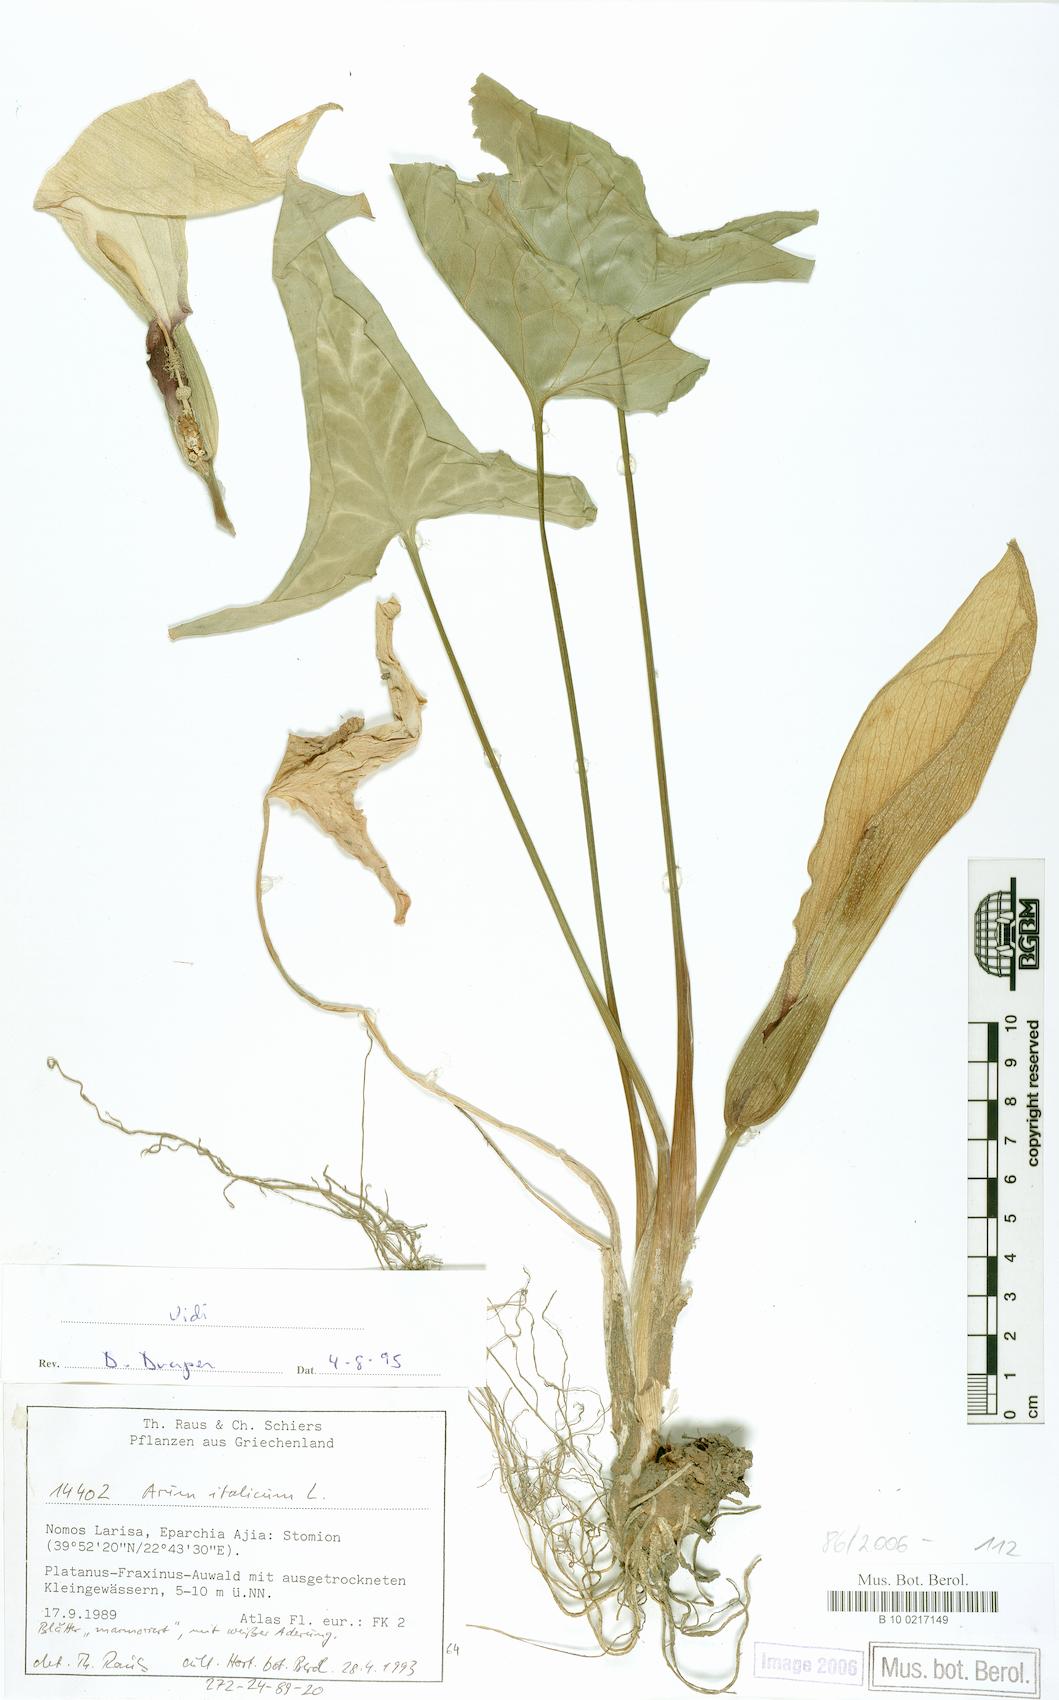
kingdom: Plantae
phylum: Tracheophyta
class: Liliopsida
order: Alismatales
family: Araceae
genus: Arum
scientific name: Arum italicum
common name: Italian lords-and-ladies
